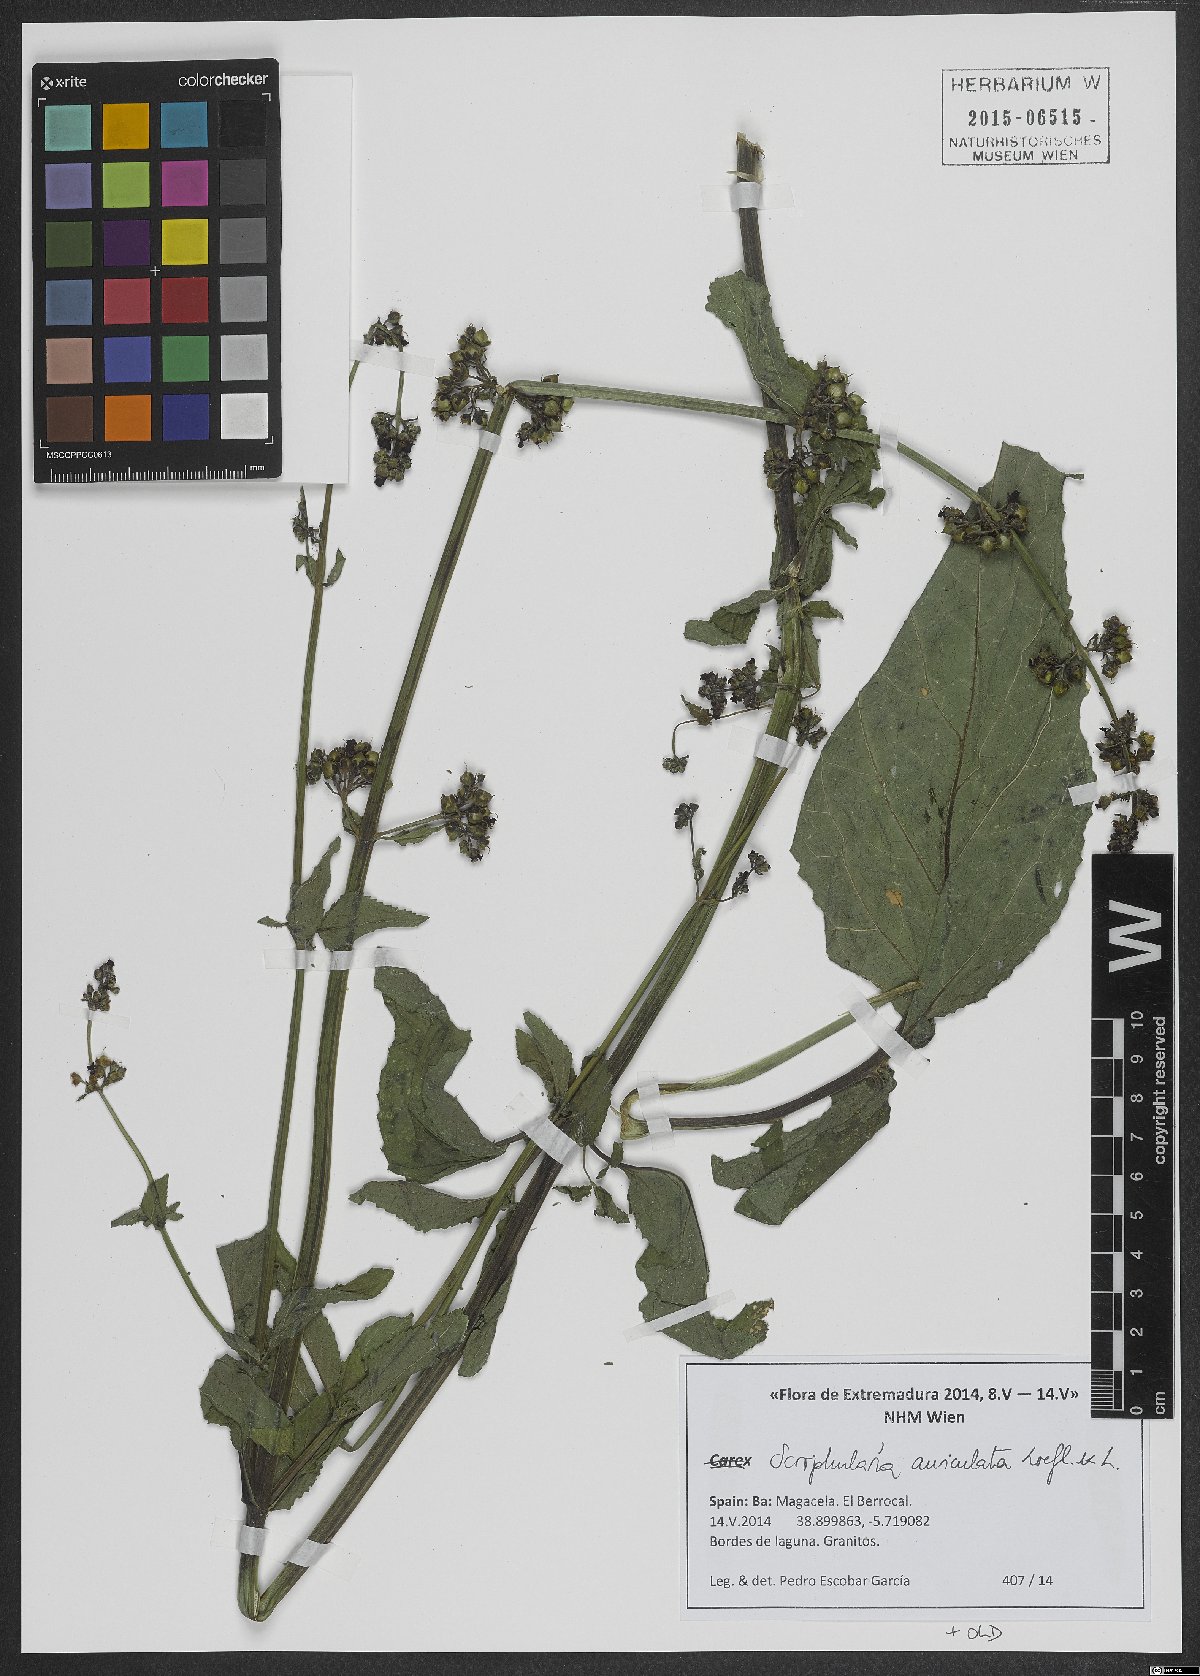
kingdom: Plantae
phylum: Tracheophyta
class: Magnoliopsida
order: Lamiales
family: Scrophulariaceae
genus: Scrophularia
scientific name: Scrophularia auriculata
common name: Water betony
